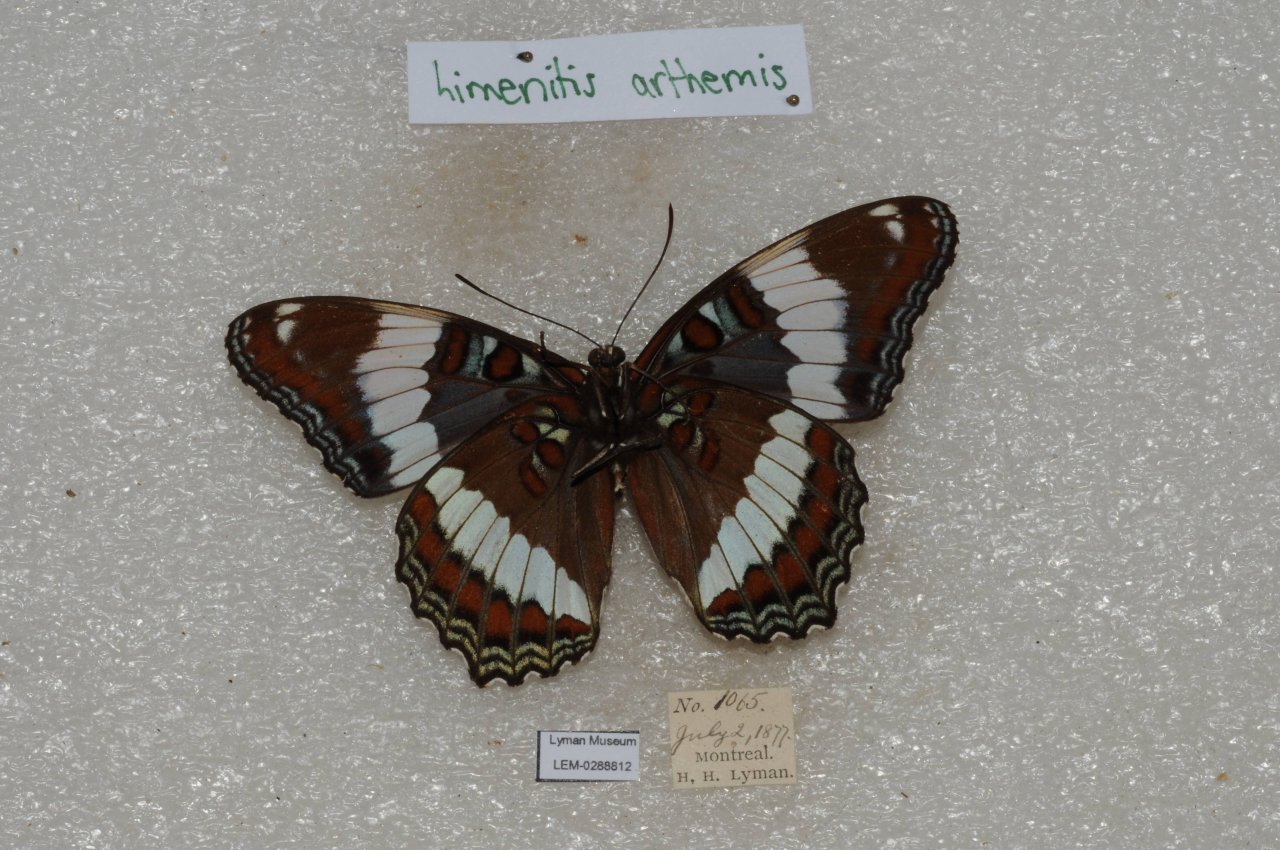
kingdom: Animalia
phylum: Arthropoda
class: Insecta
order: Lepidoptera
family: Nymphalidae
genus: Limenitis
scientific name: Limenitis arthemis
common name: Red-spotted Admiral
